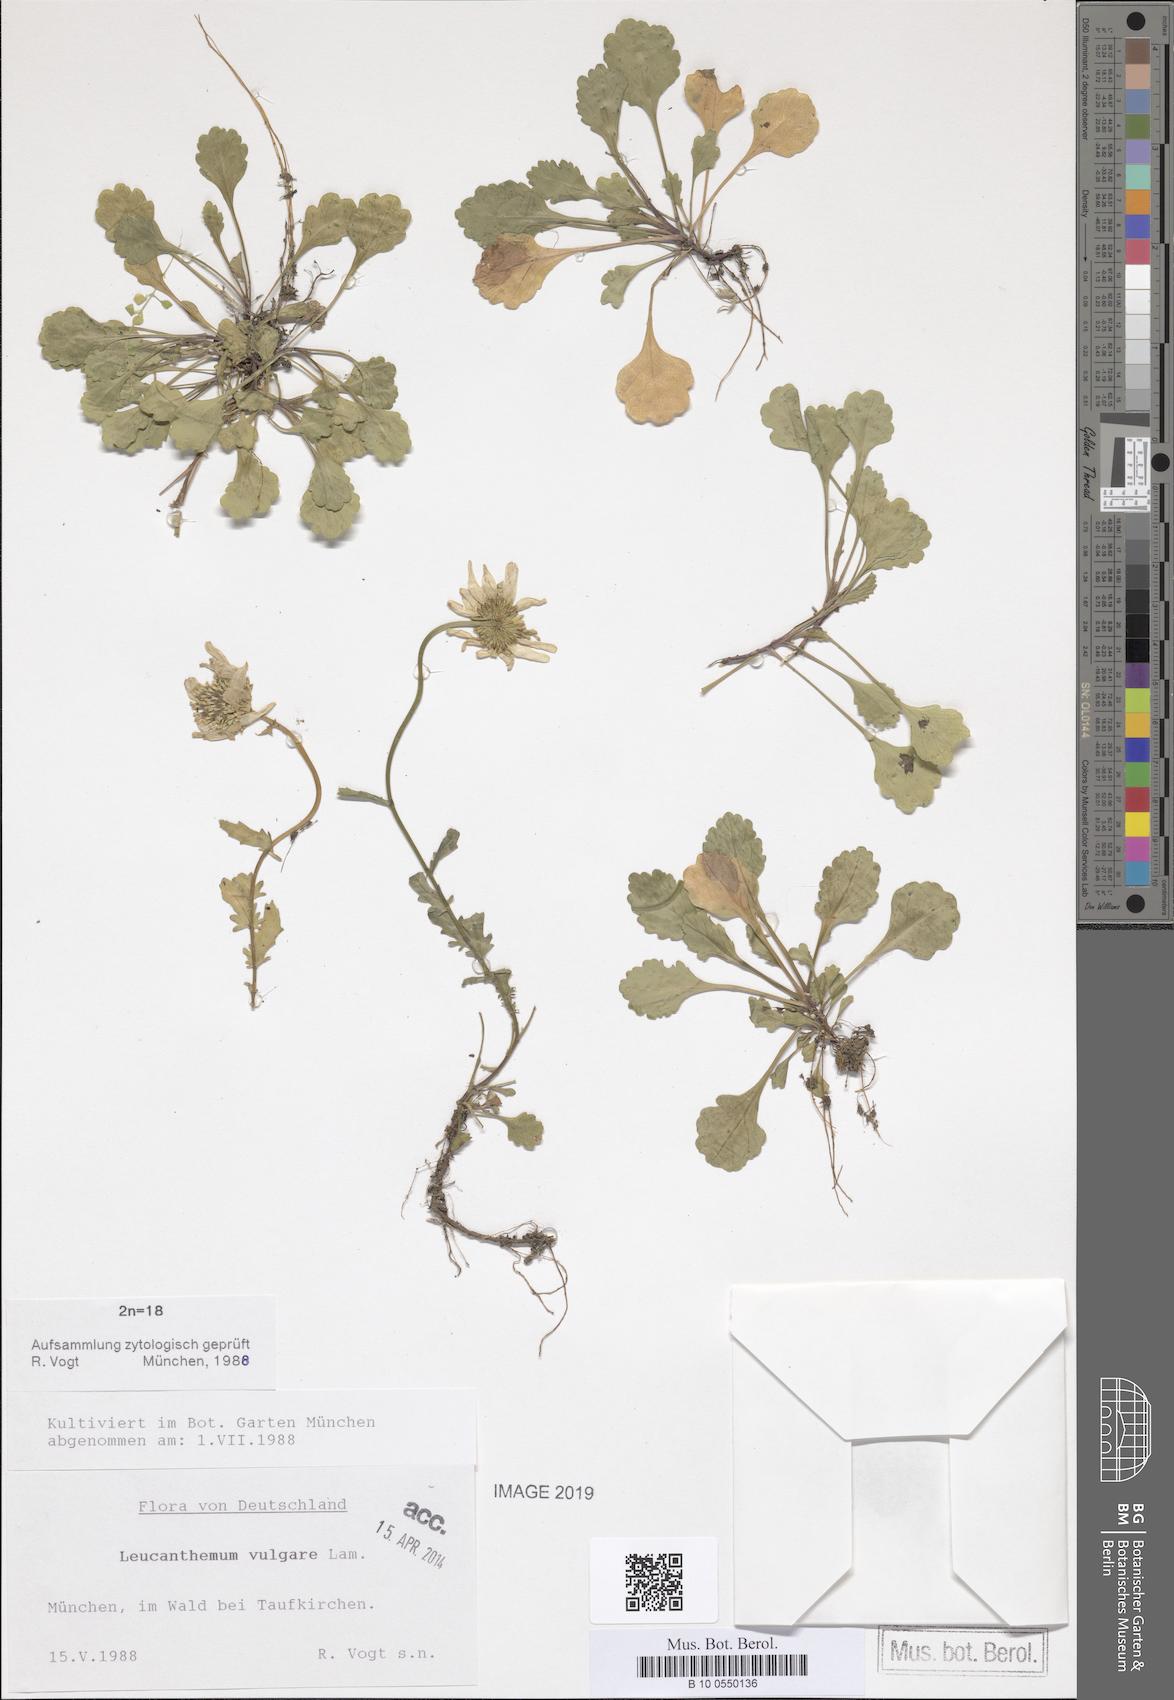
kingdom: Plantae
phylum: Tracheophyta
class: Magnoliopsida
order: Asterales
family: Asteraceae
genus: Leucanthemum
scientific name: Leucanthemum vulgare
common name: Oxeye daisy
